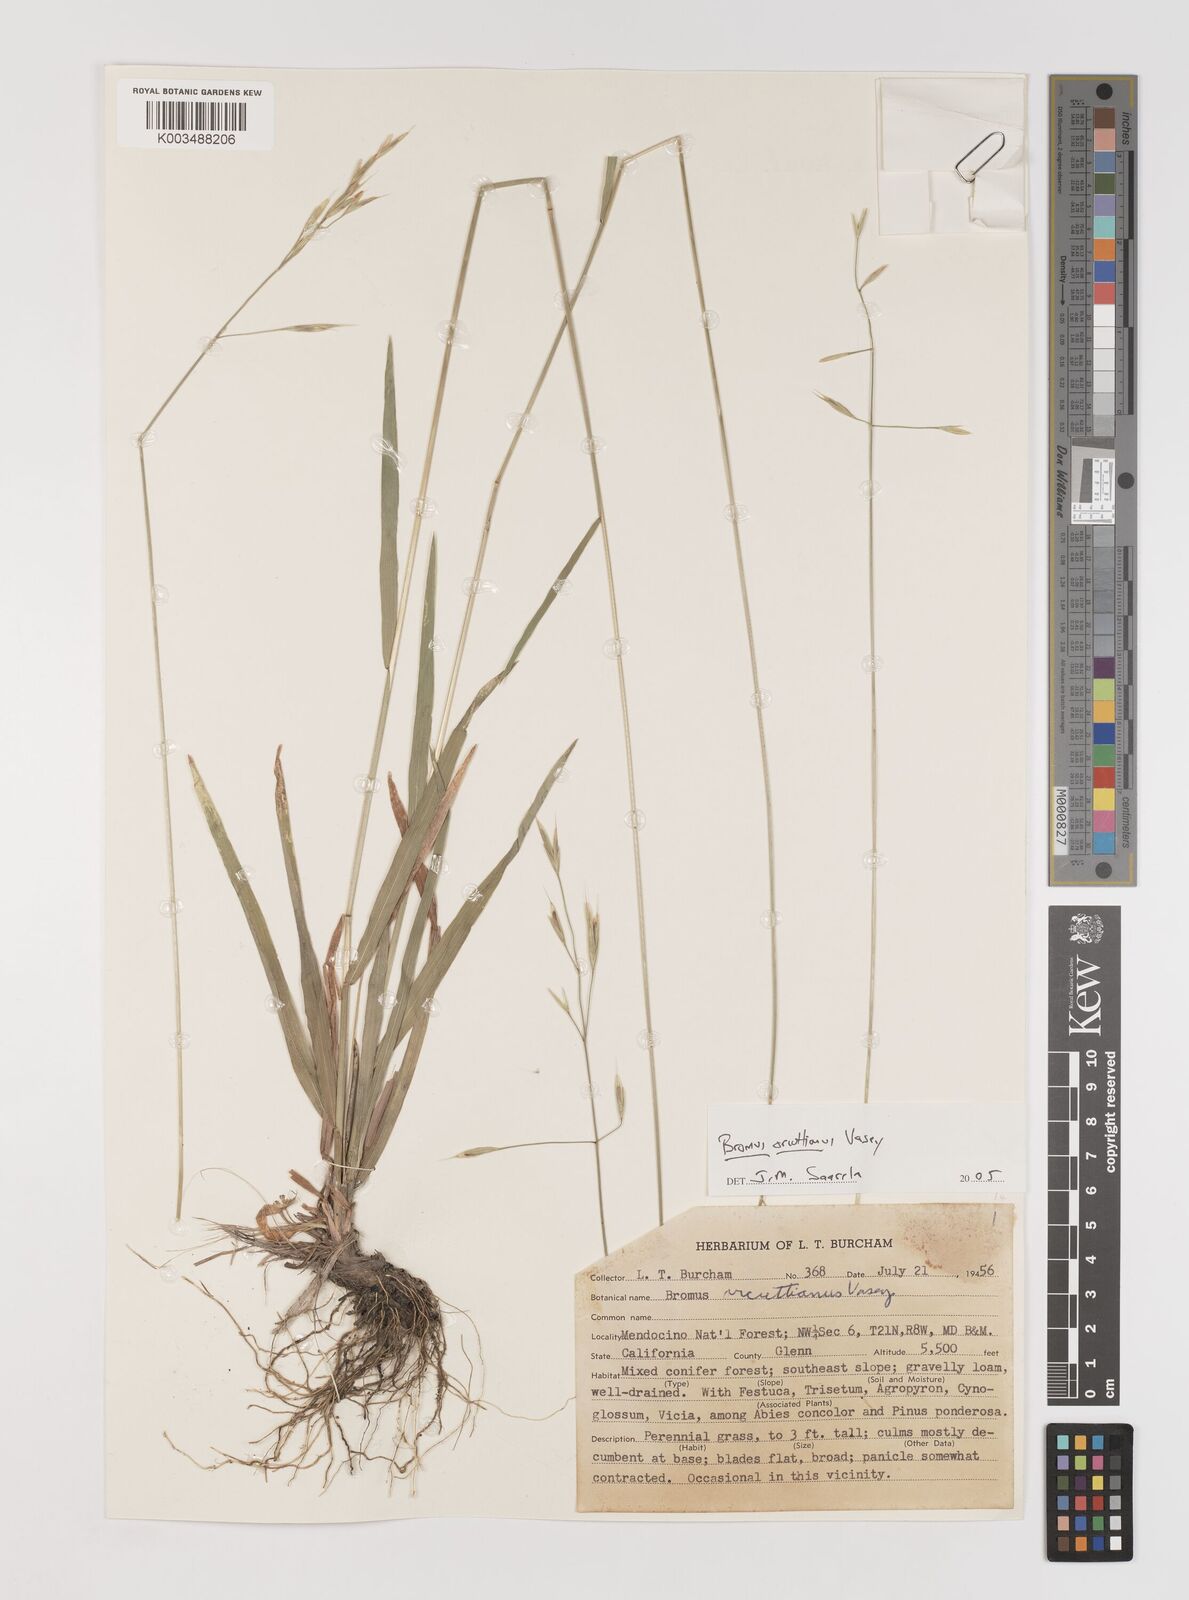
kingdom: Plantae
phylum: Tracheophyta
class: Liliopsida
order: Poales
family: Poaceae
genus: Bromus
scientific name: Bromus orcuttianus
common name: Orcutt's brome
